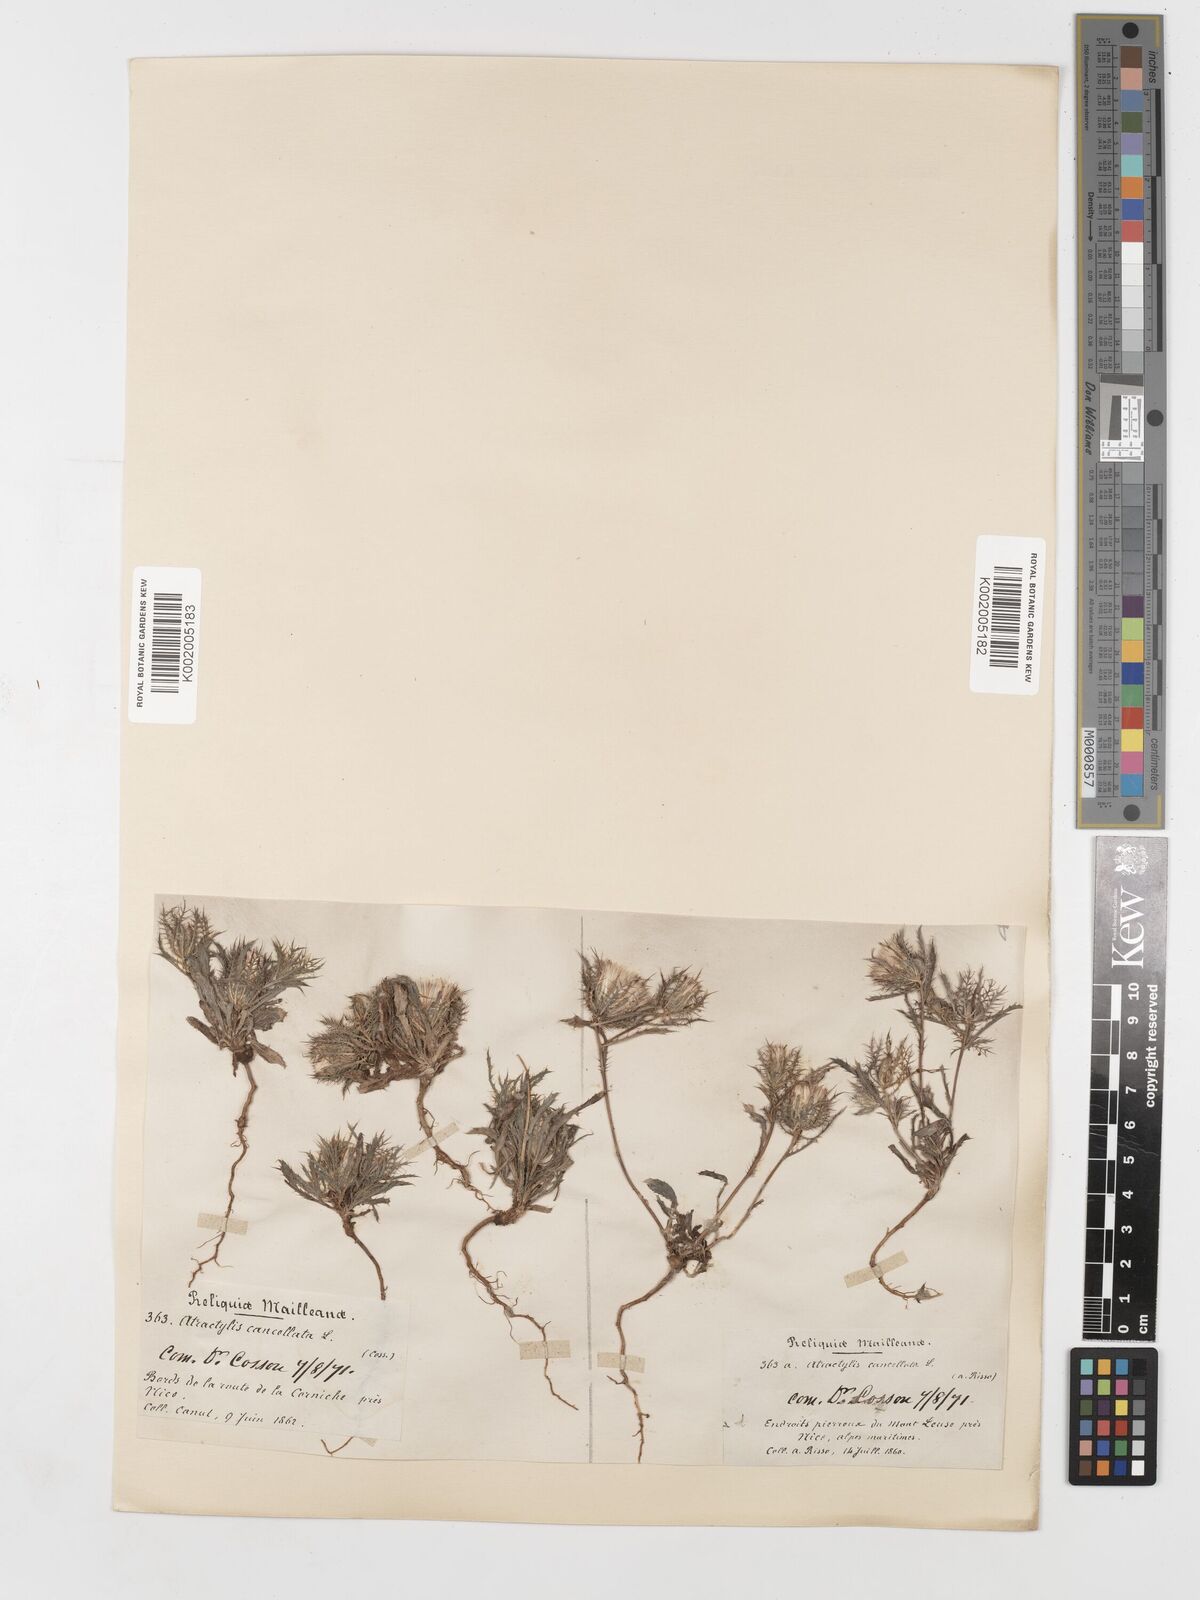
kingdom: Plantae
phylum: Tracheophyta
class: Magnoliopsida
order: Asterales
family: Asteraceae
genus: Atractylis
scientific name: Atractylis cancellata
